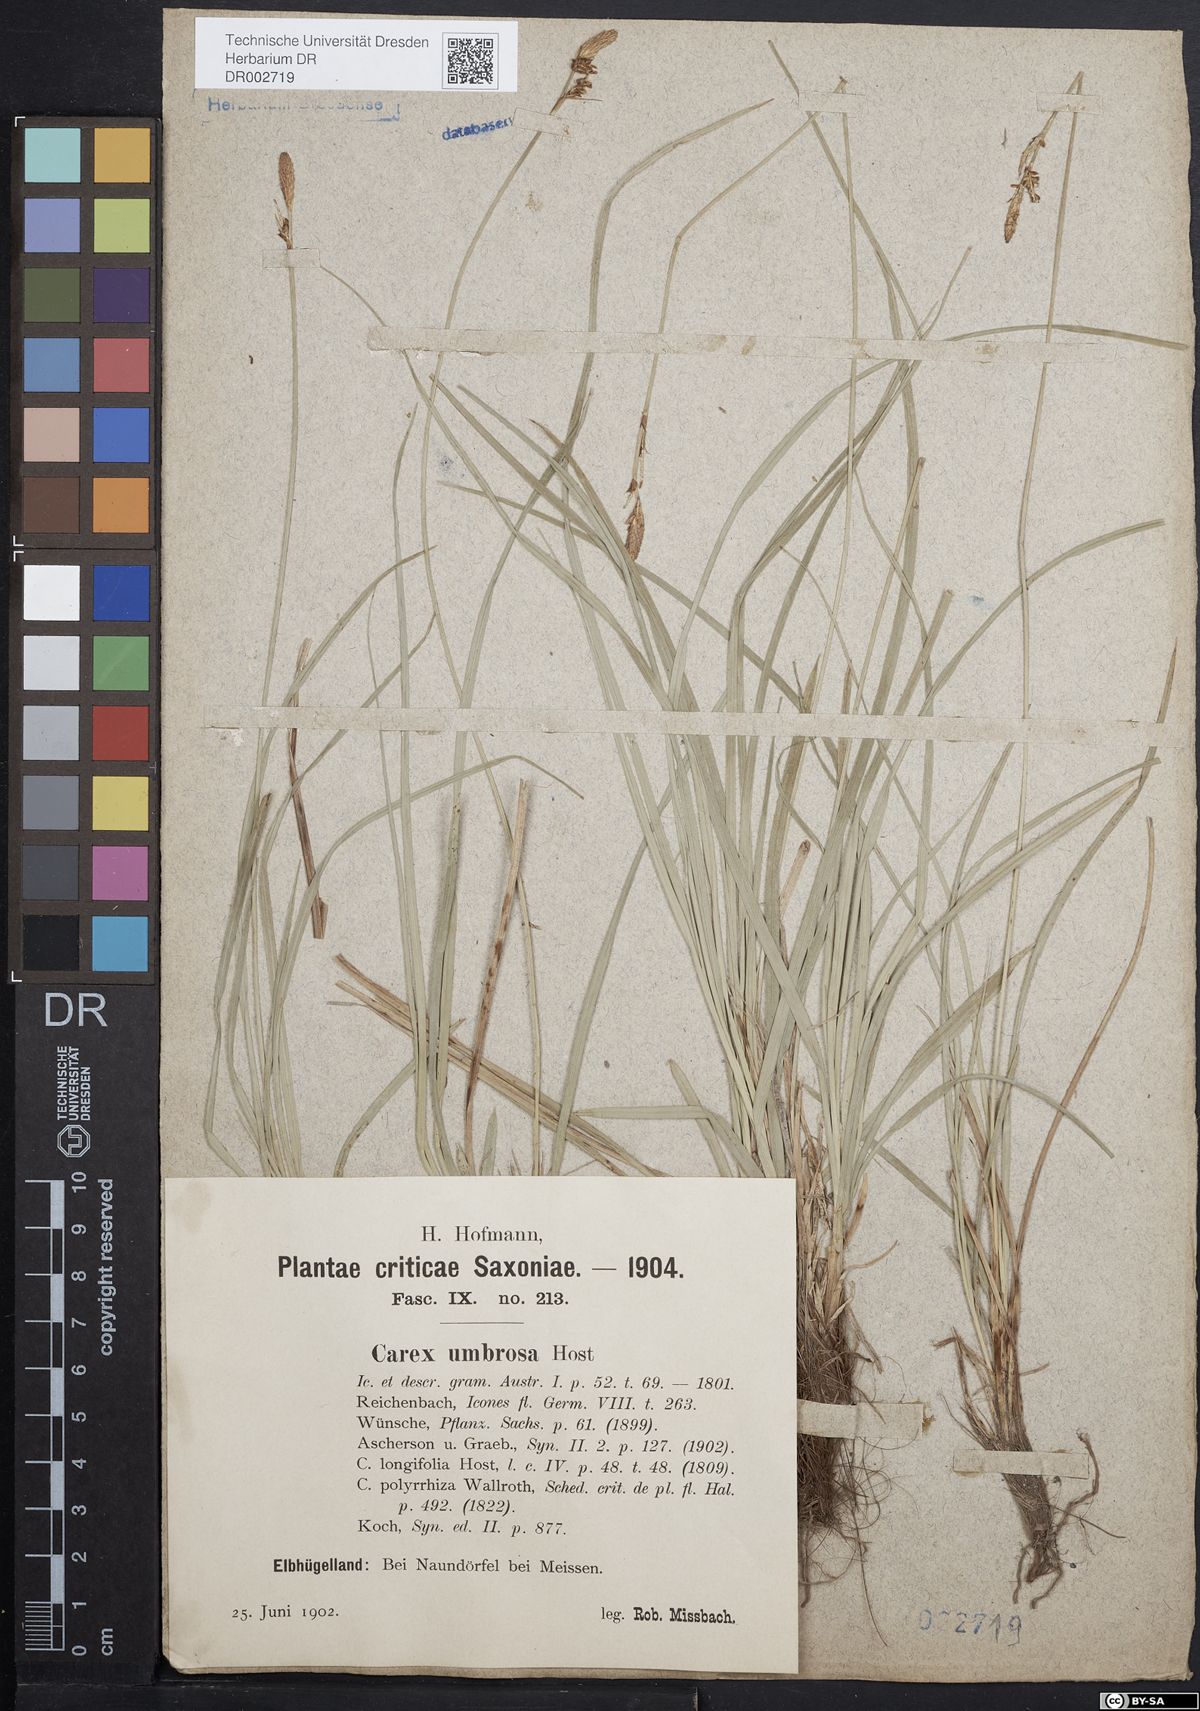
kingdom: Plantae
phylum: Tracheophyta
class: Liliopsida
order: Poales
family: Cyperaceae
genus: Carex
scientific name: Carex umbrosa
